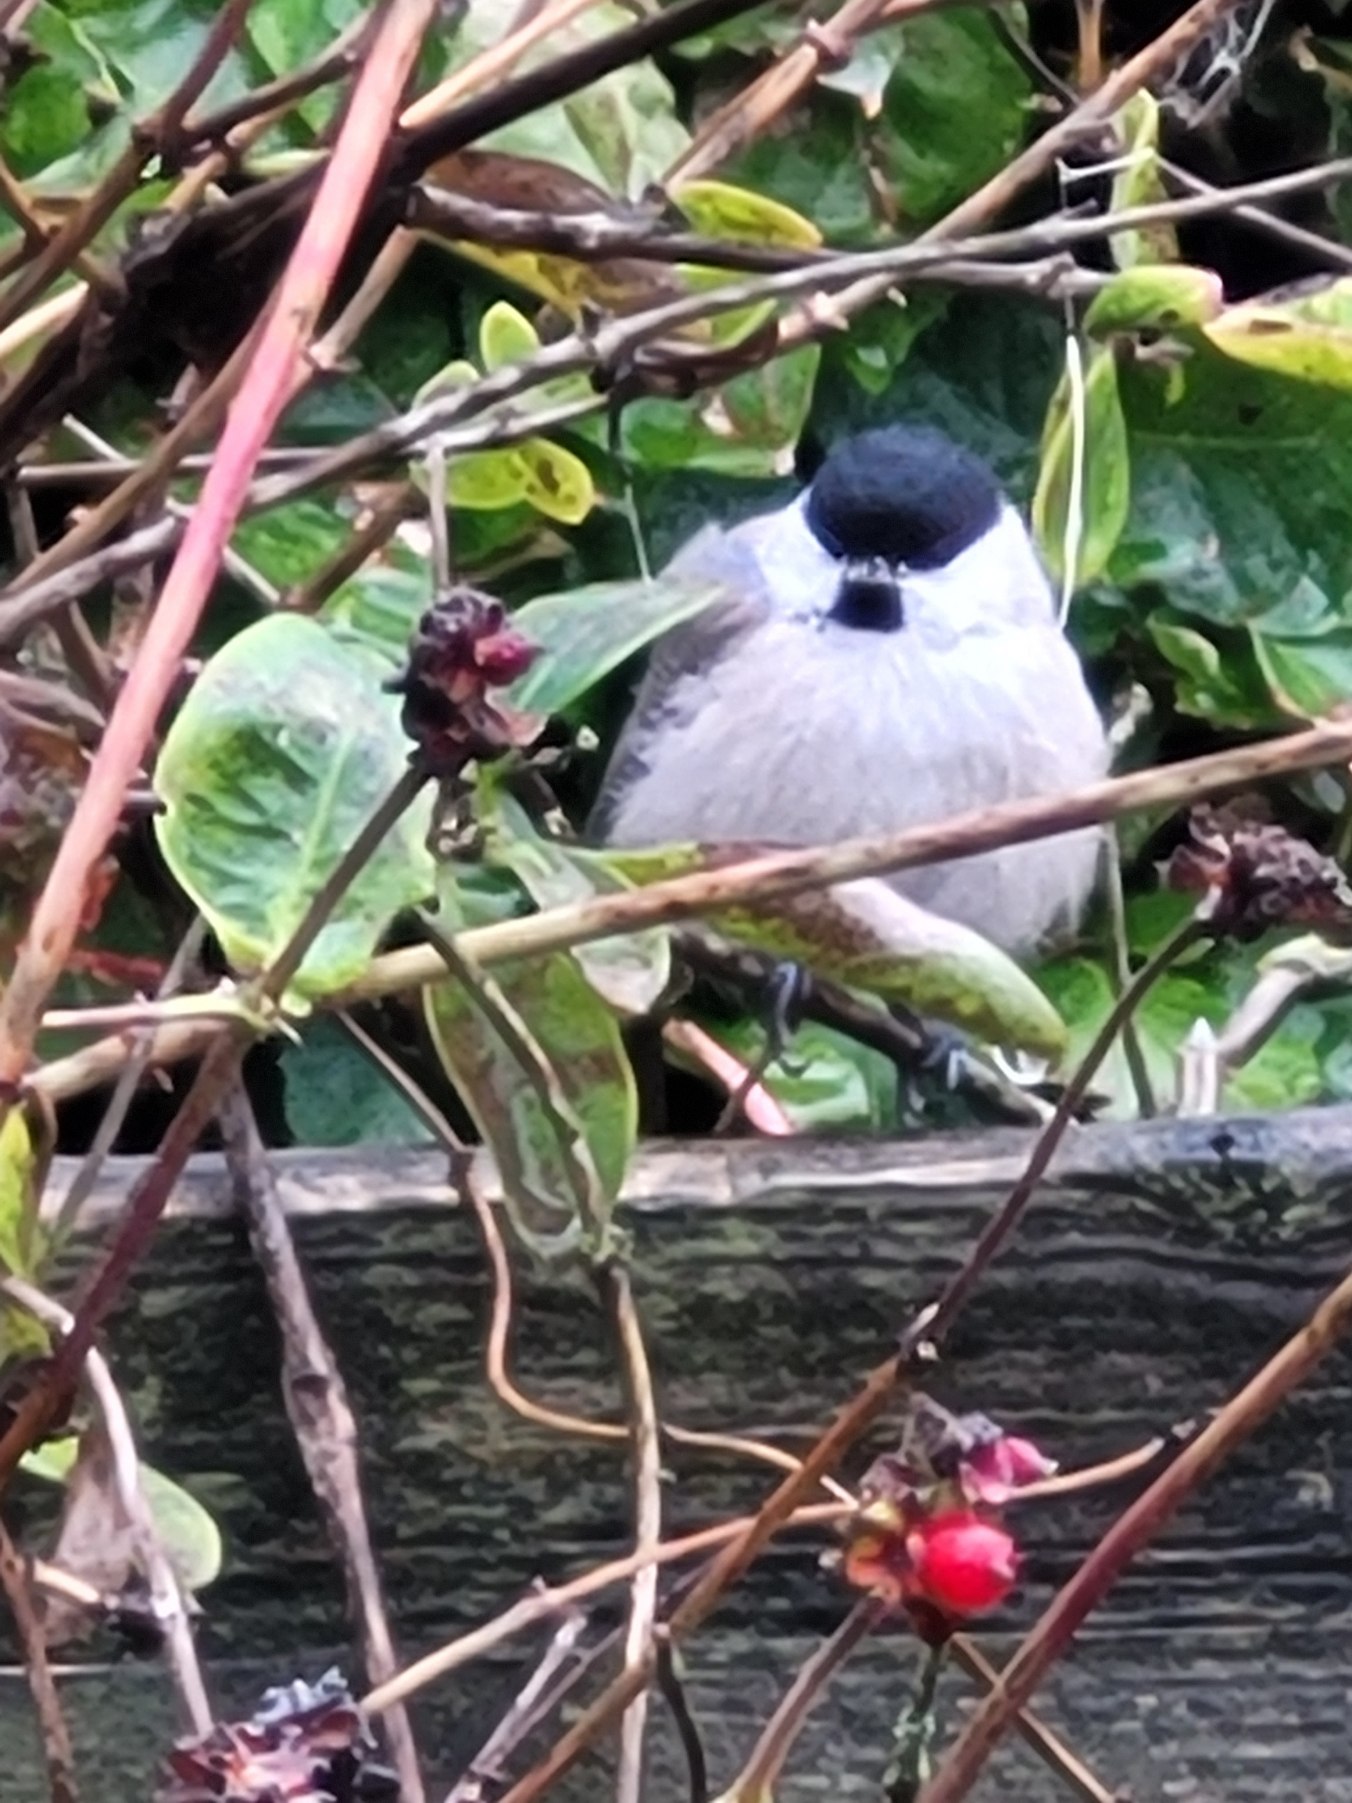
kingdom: Animalia
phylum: Chordata
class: Aves
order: Passeriformes
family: Paridae
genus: Poecile
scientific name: Poecile palustris
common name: Sumpmejse
